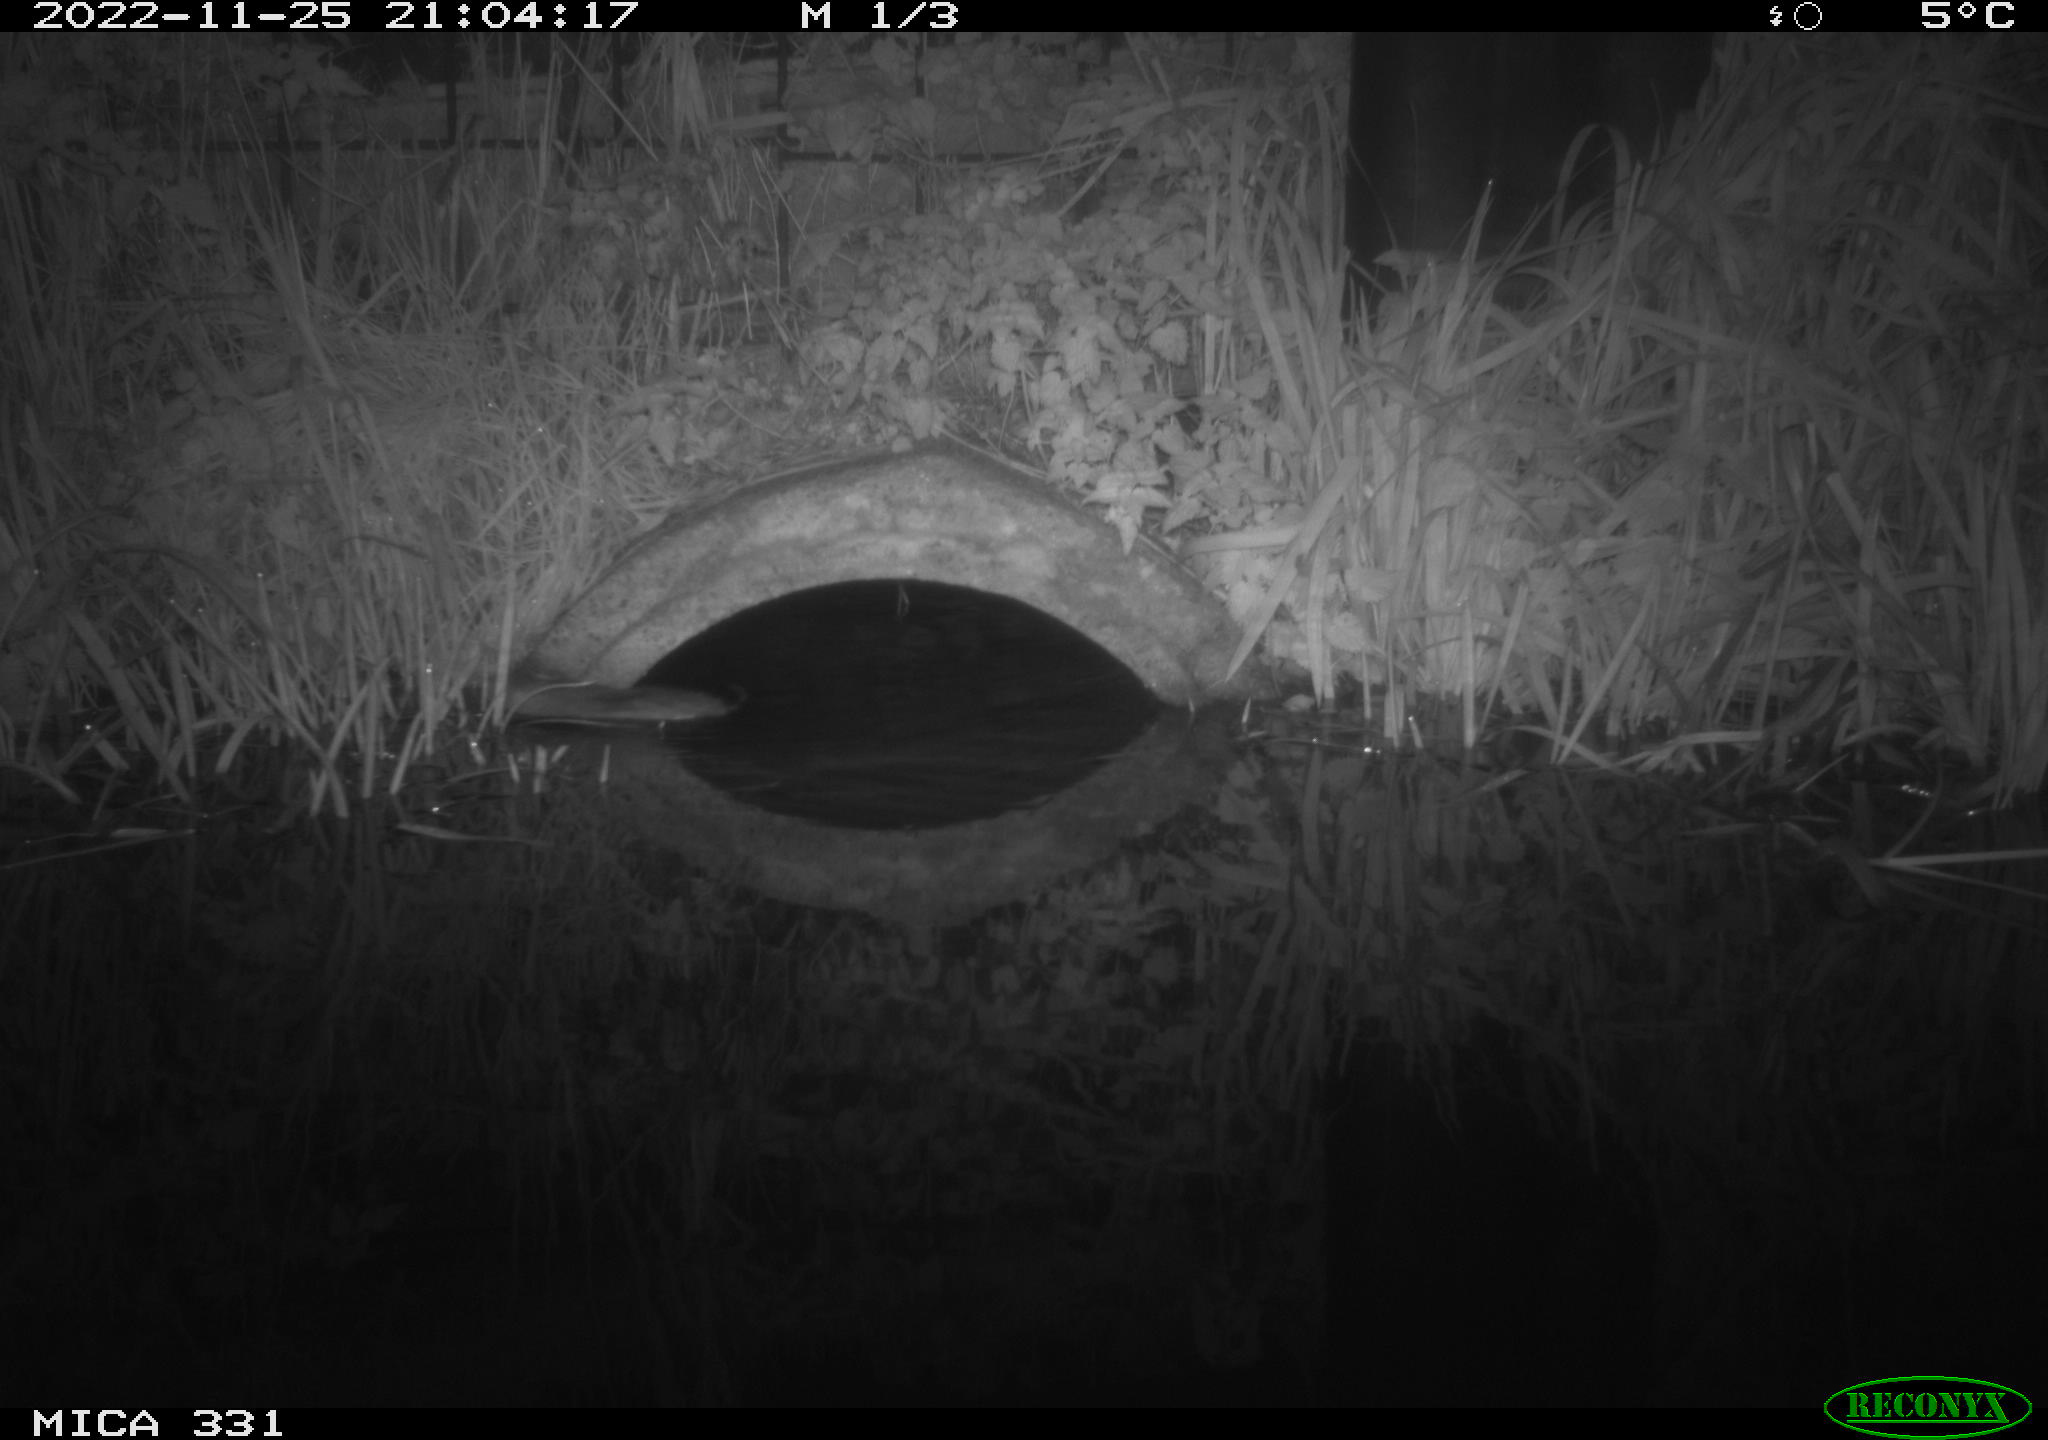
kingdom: Animalia
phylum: Chordata
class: Mammalia
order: Rodentia
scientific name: Rodentia
